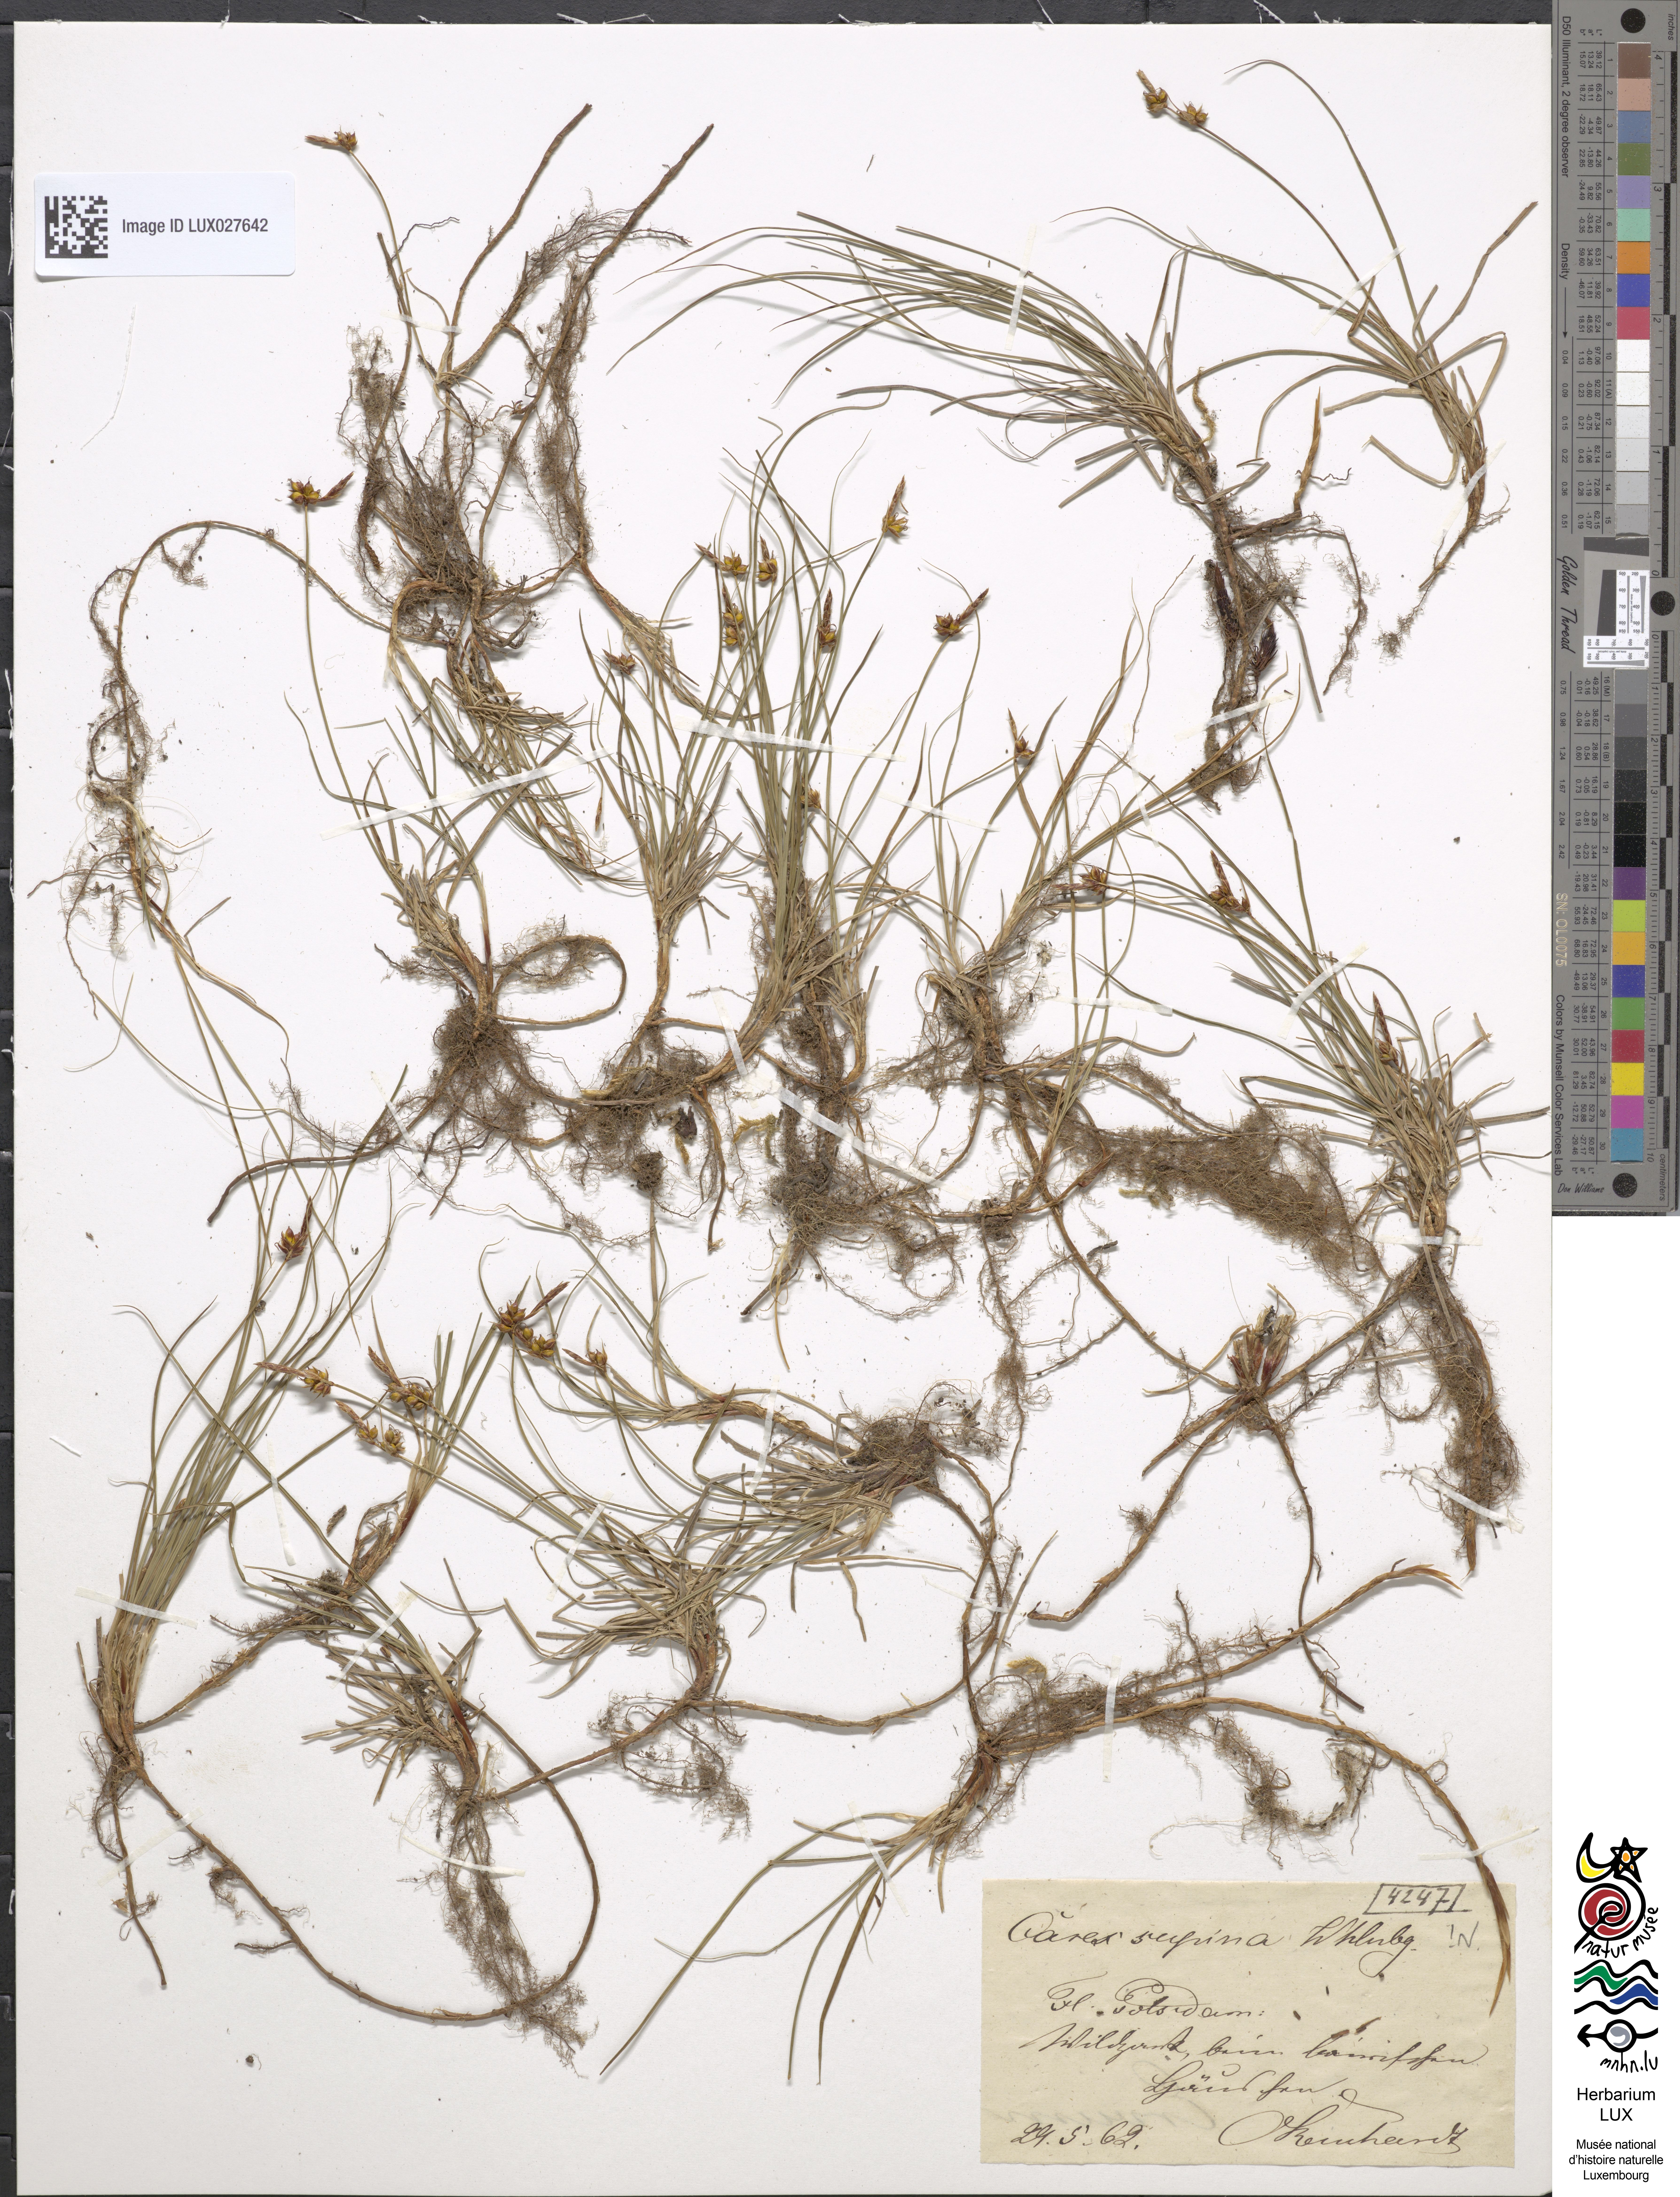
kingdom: Plantae
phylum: Tracheophyta
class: Liliopsida
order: Poales
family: Cyperaceae
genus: Carex
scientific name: Carex supina
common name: Lying-back sedge
